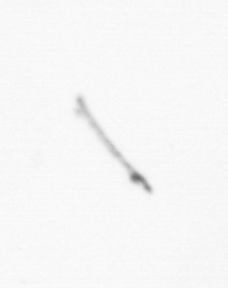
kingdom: Chromista
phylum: Ochrophyta
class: Bacillariophyceae
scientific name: Bacillariophyceae
